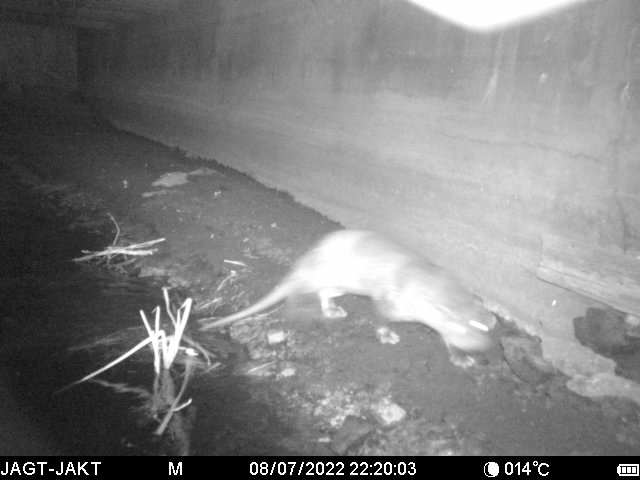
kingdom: Animalia
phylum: Chordata
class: Mammalia
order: Carnivora
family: Mustelidae
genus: Lutra
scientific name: Lutra lutra
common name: Odder
